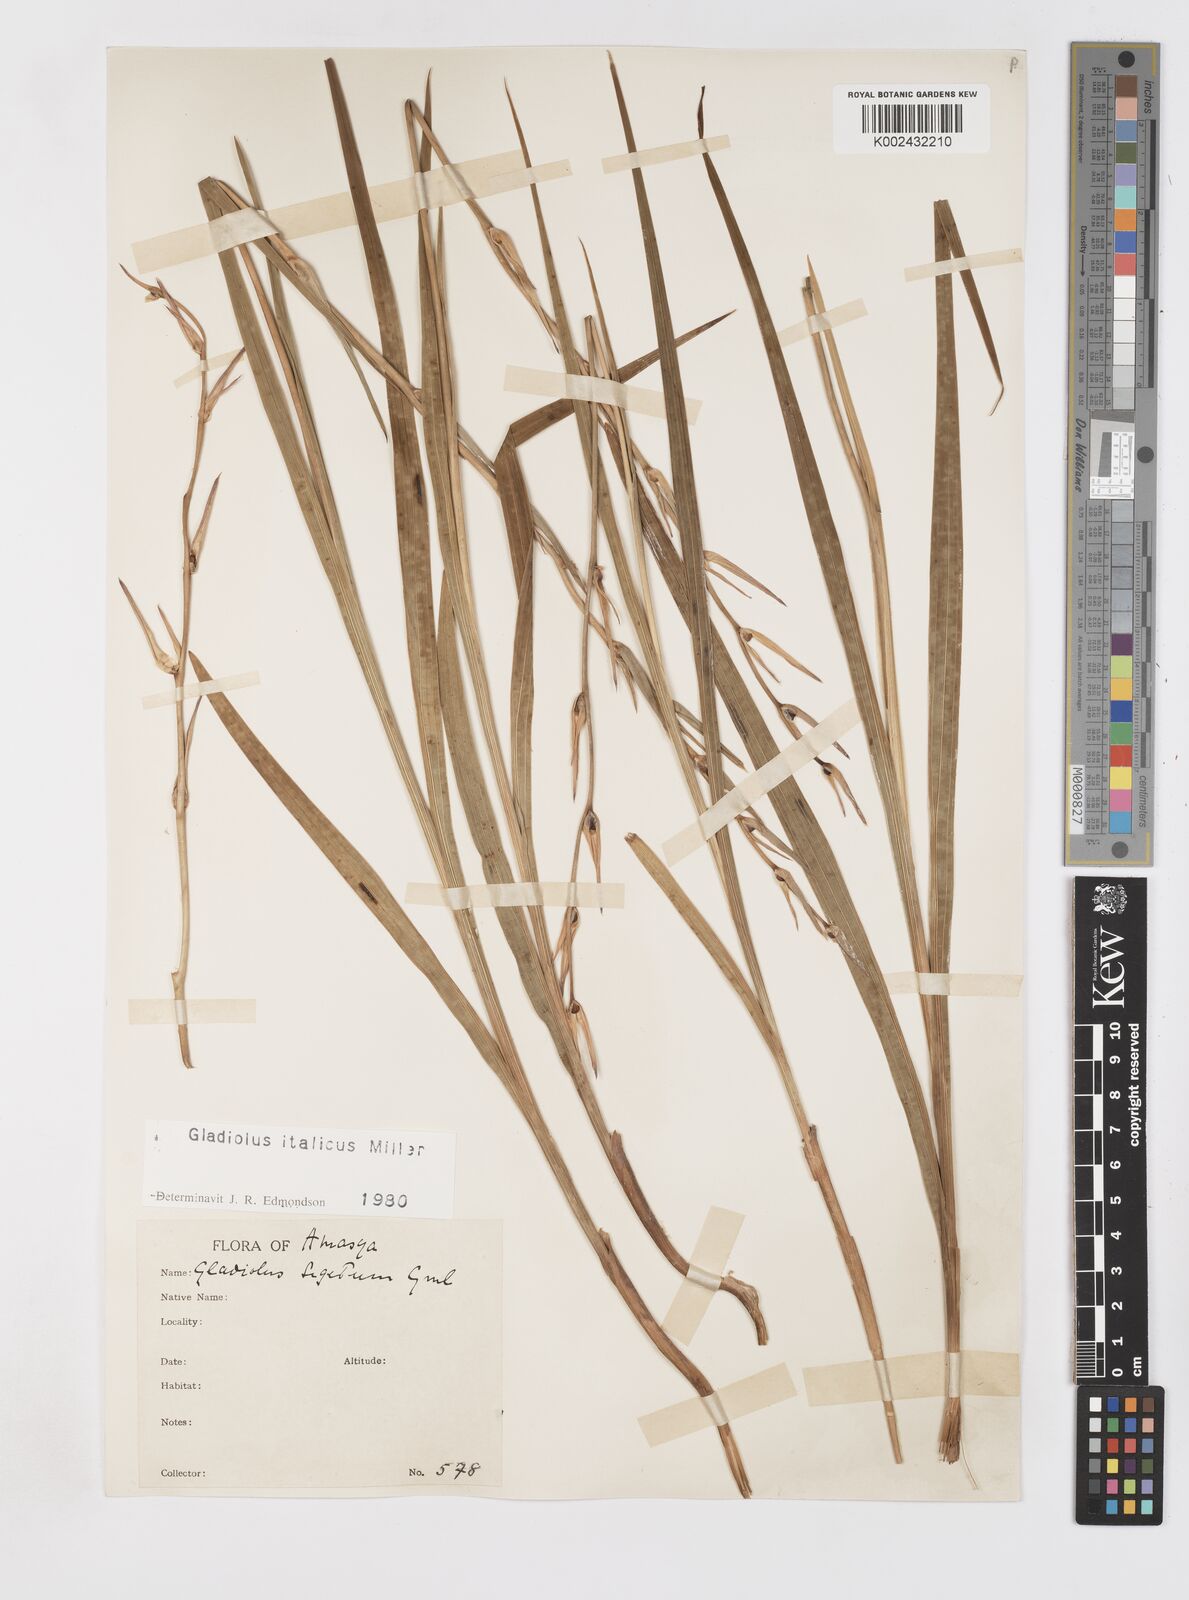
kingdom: Plantae
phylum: Tracheophyta
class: Liliopsida
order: Asparagales
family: Iridaceae
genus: Gladiolus
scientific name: Gladiolus italicus
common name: Field gladiolus
